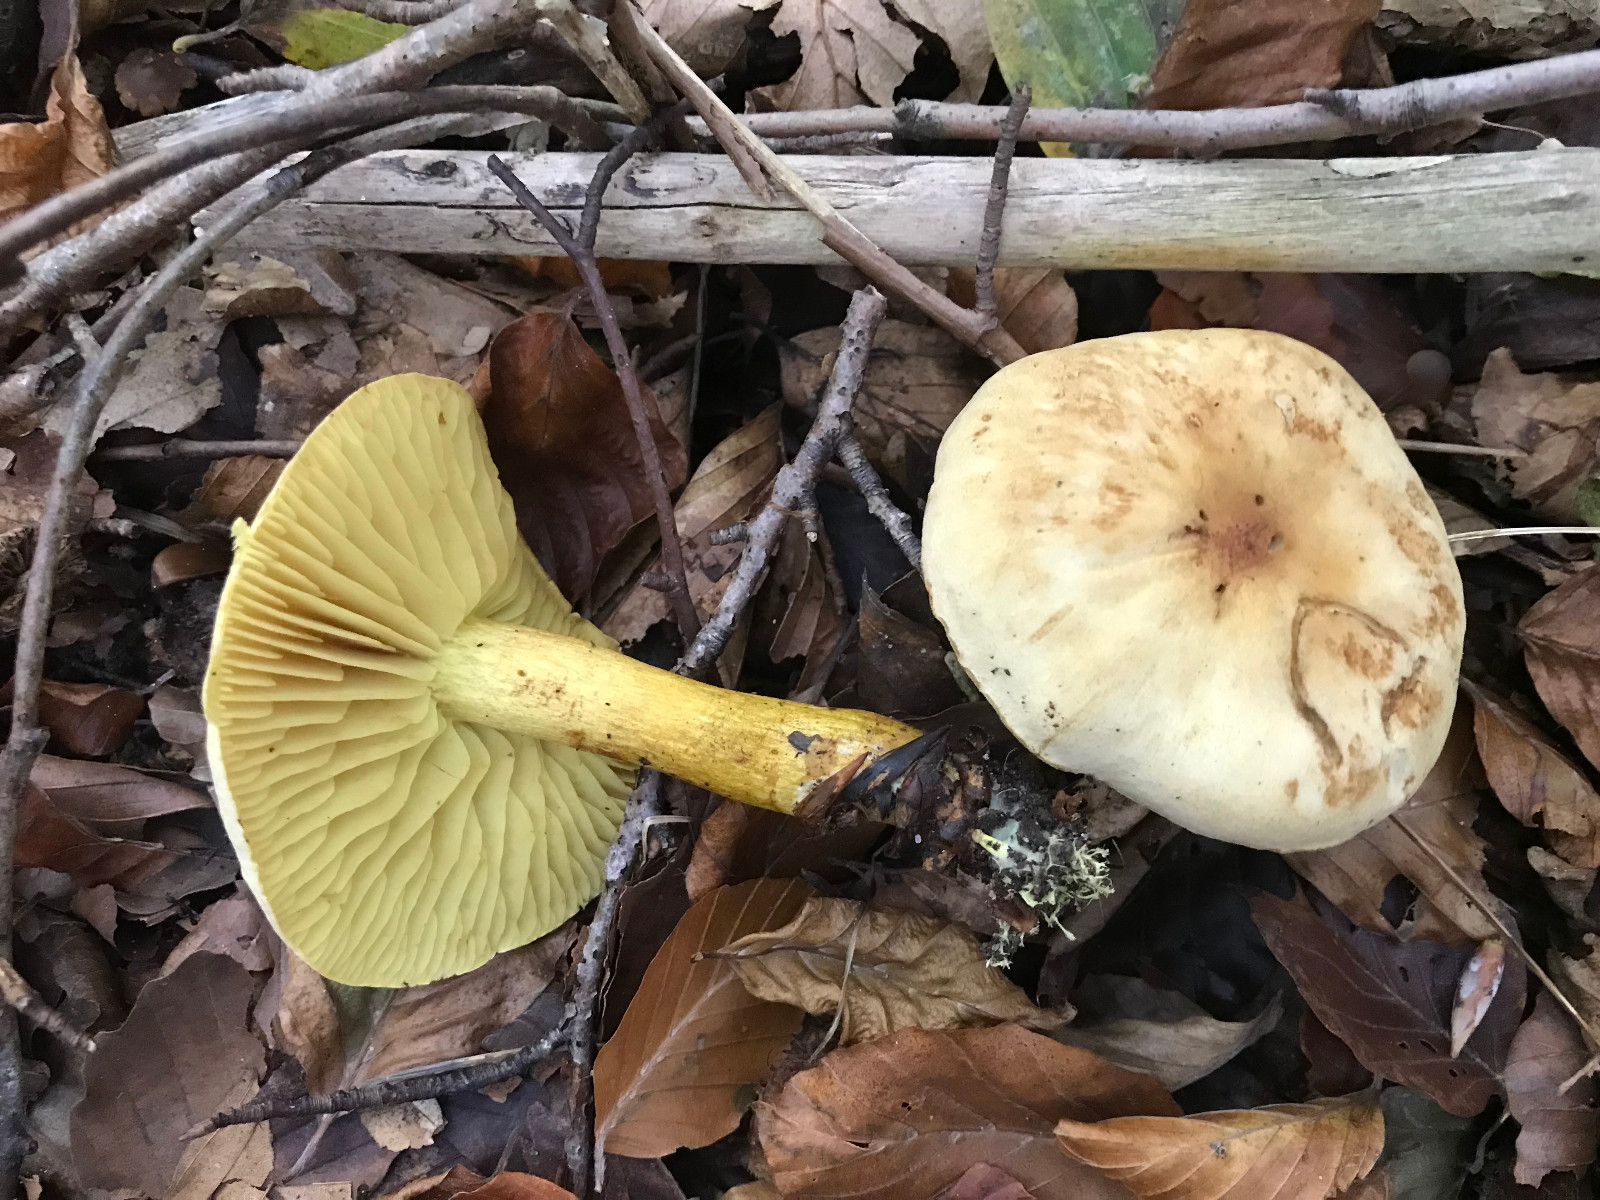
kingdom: Fungi
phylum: Basidiomycota
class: Agaricomycetes
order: Agaricales
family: Tricholomataceae
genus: Tricholoma
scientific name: Tricholoma sulphureum
